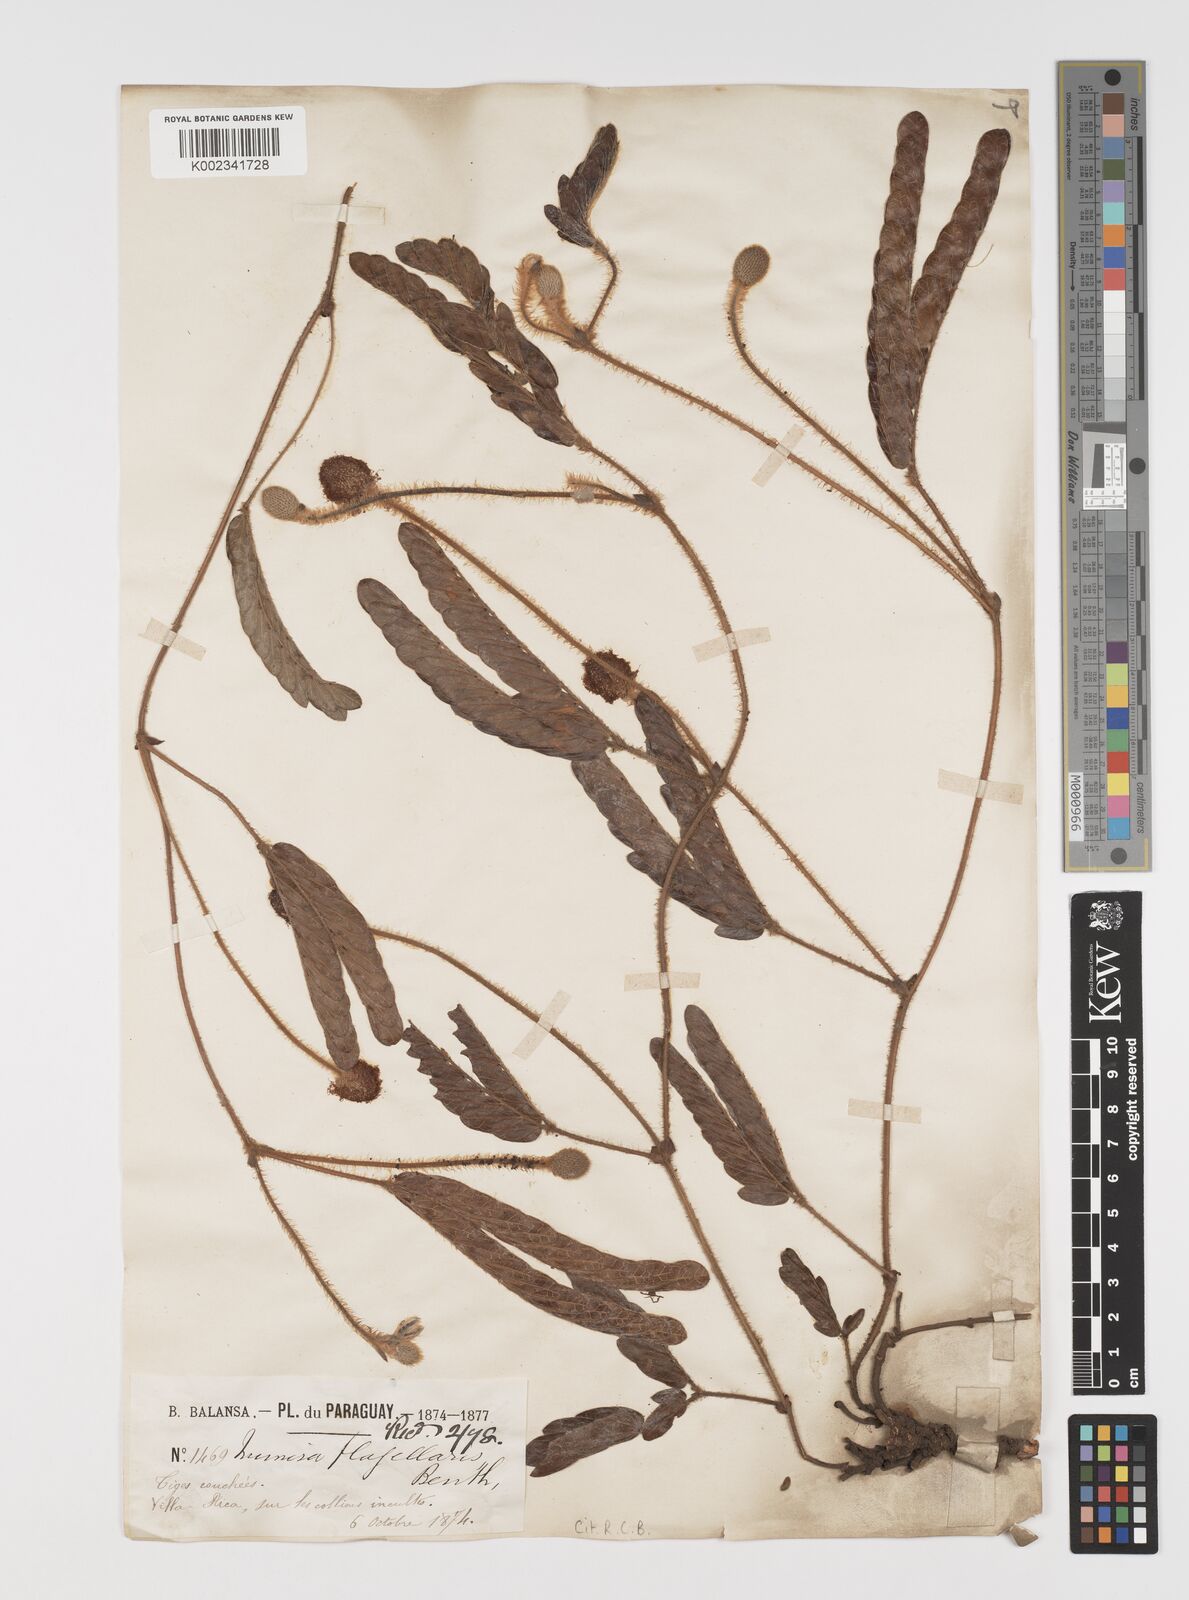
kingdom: Plantae
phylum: Tracheophyta
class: Magnoliopsida
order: Fabales
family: Fabaceae
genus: Mimosa
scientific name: Mimosa flagellaris
